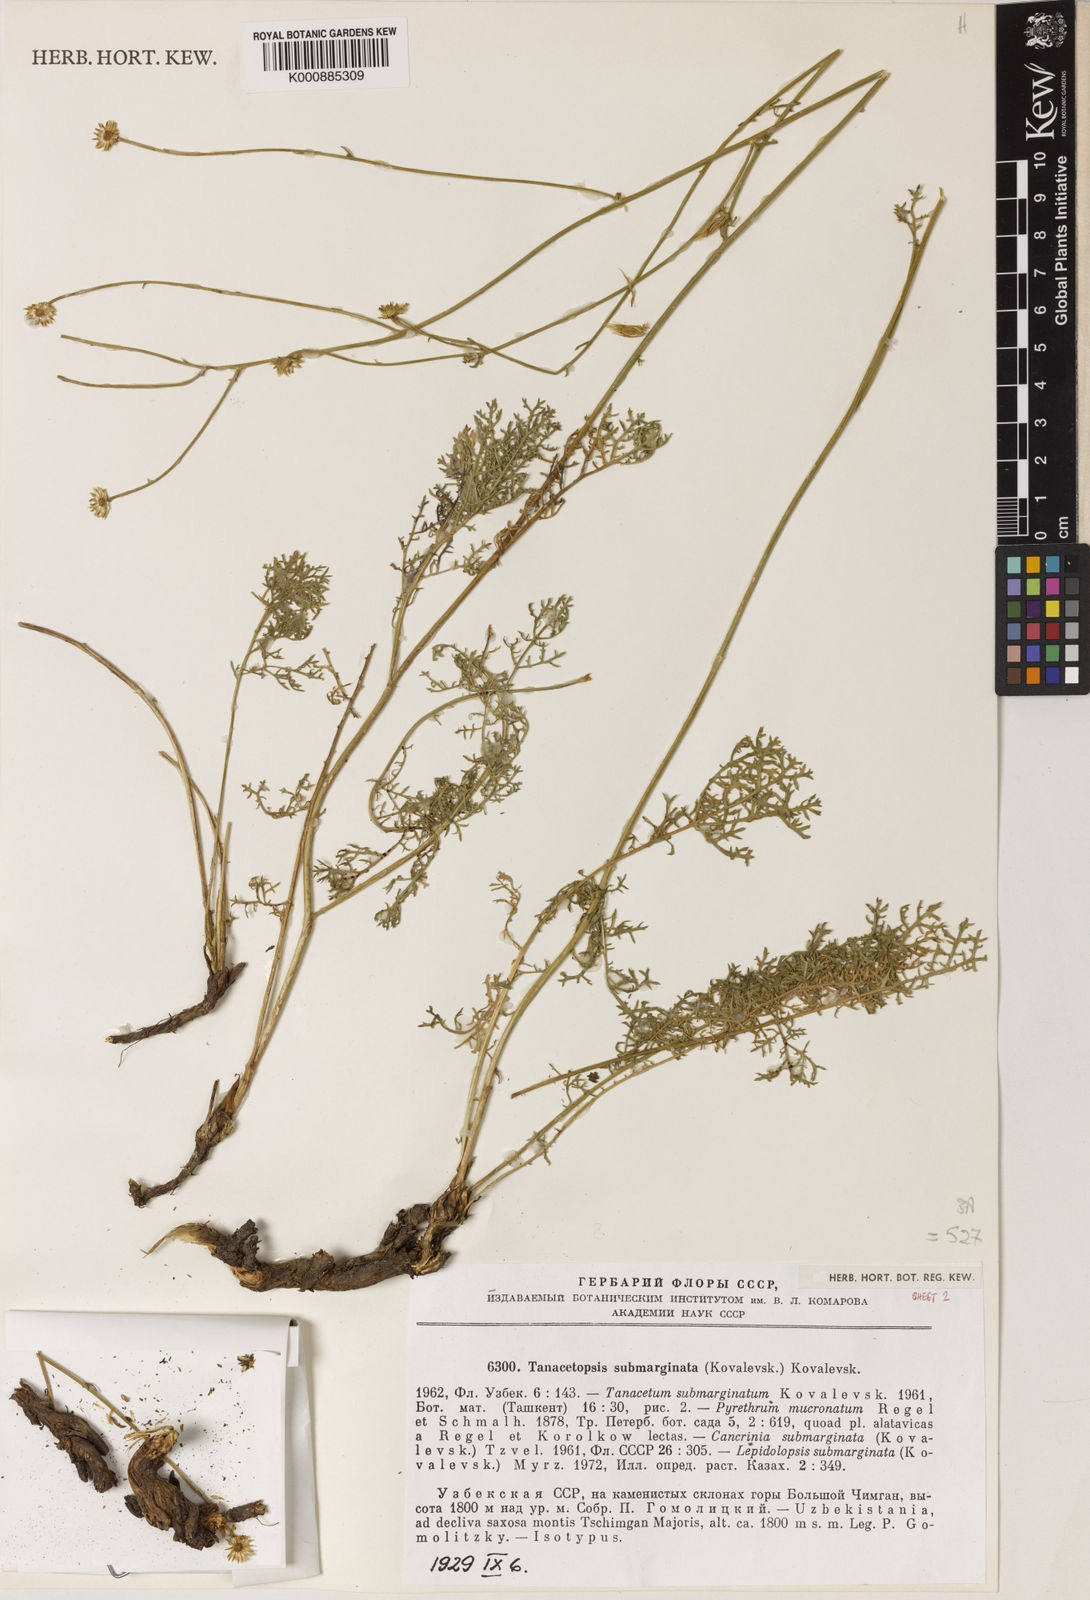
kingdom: Plantae
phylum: Tracheophyta
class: Magnoliopsida
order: Asterales
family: Asteraceae
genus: Tanacetopsis
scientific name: Tanacetopsis submarginata
